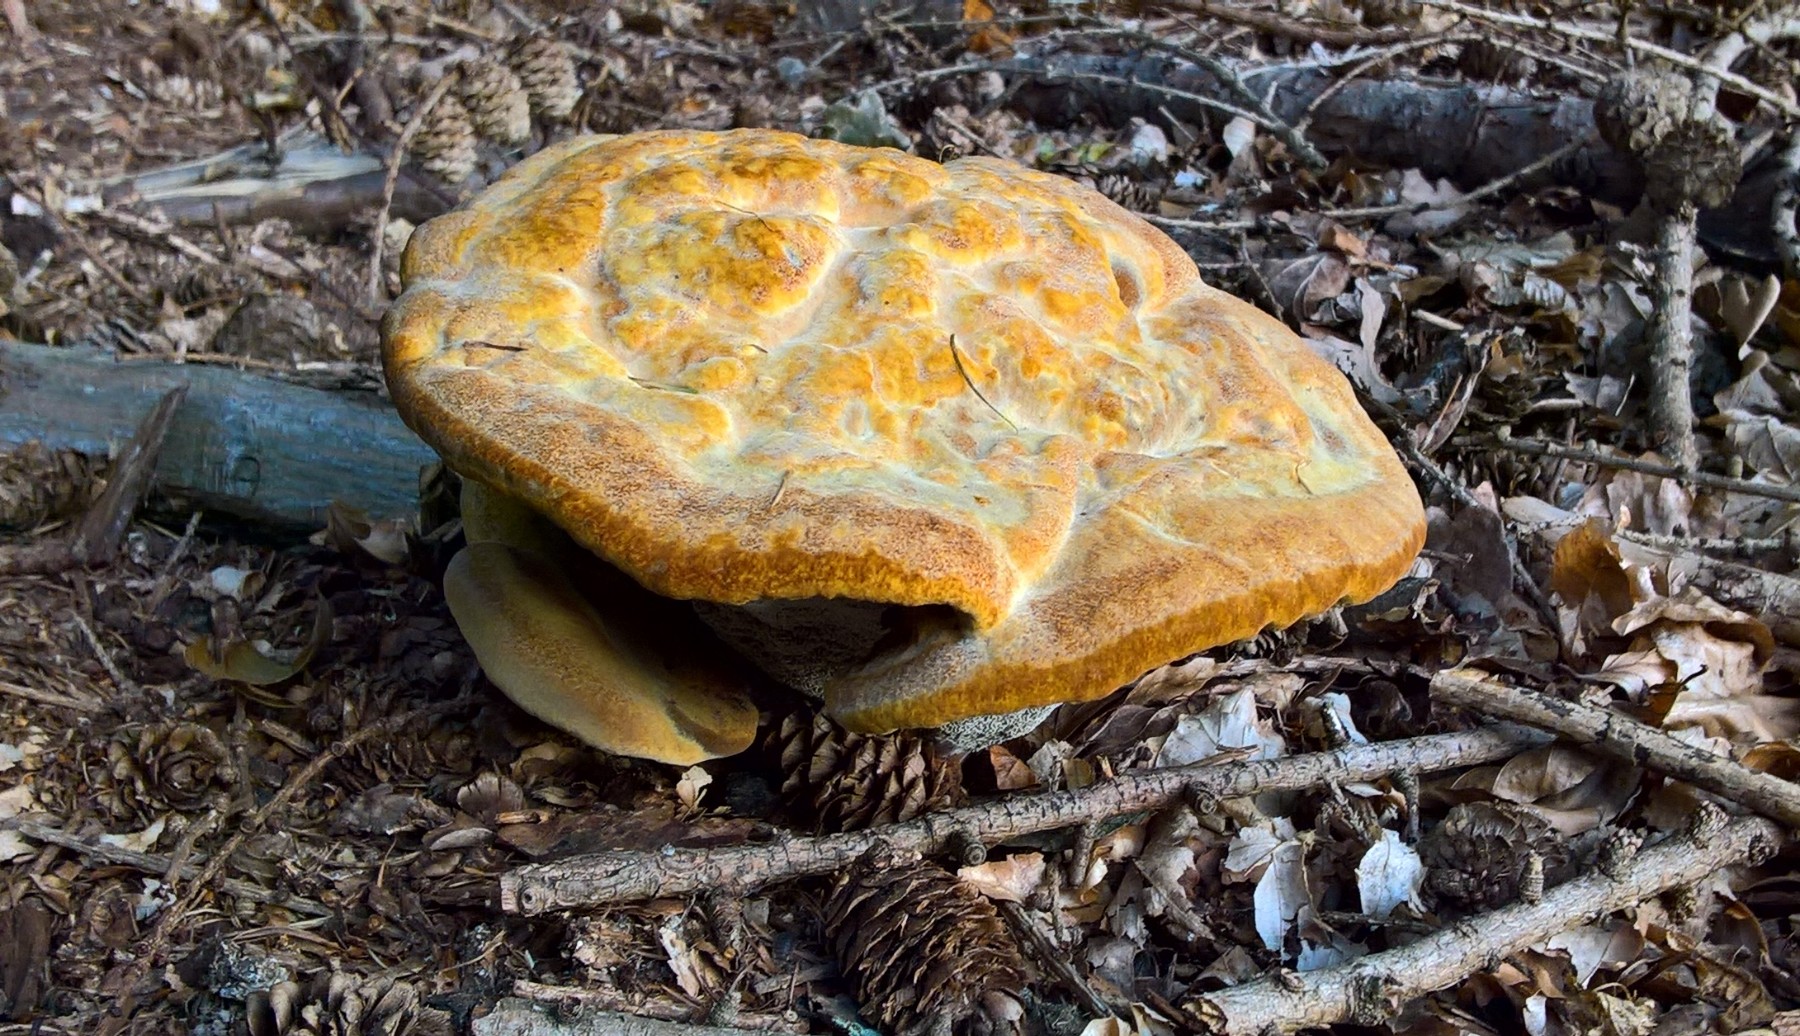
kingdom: Fungi
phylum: Basidiomycota
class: Agaricomycetes
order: Polyporales
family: Laetiporaceae
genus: Phaeolus
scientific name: Phaeolus schweinitzii
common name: brunporesvamp
